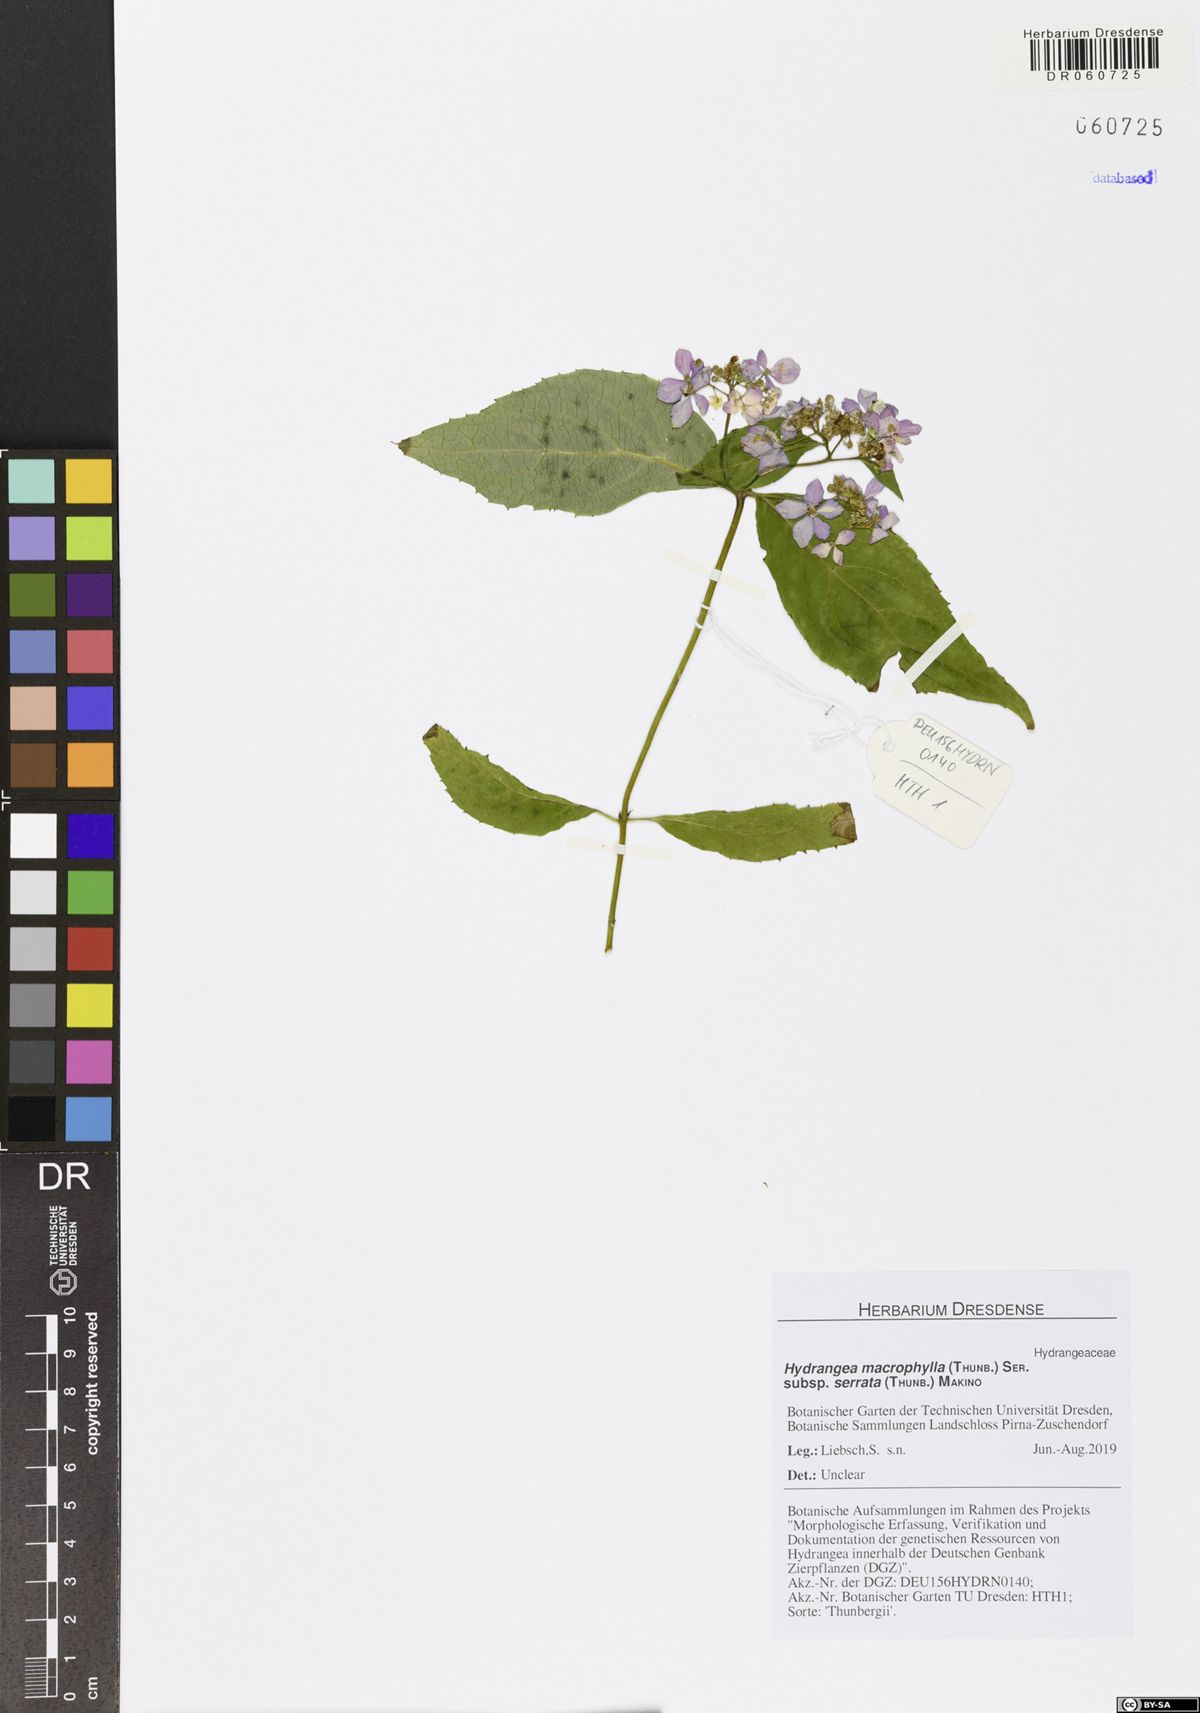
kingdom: Plantae
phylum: Tracheophyta
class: Magnoliopsida
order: Cornales
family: Hydrangeaceae
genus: Hydrangea
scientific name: Hydrangea serrata
